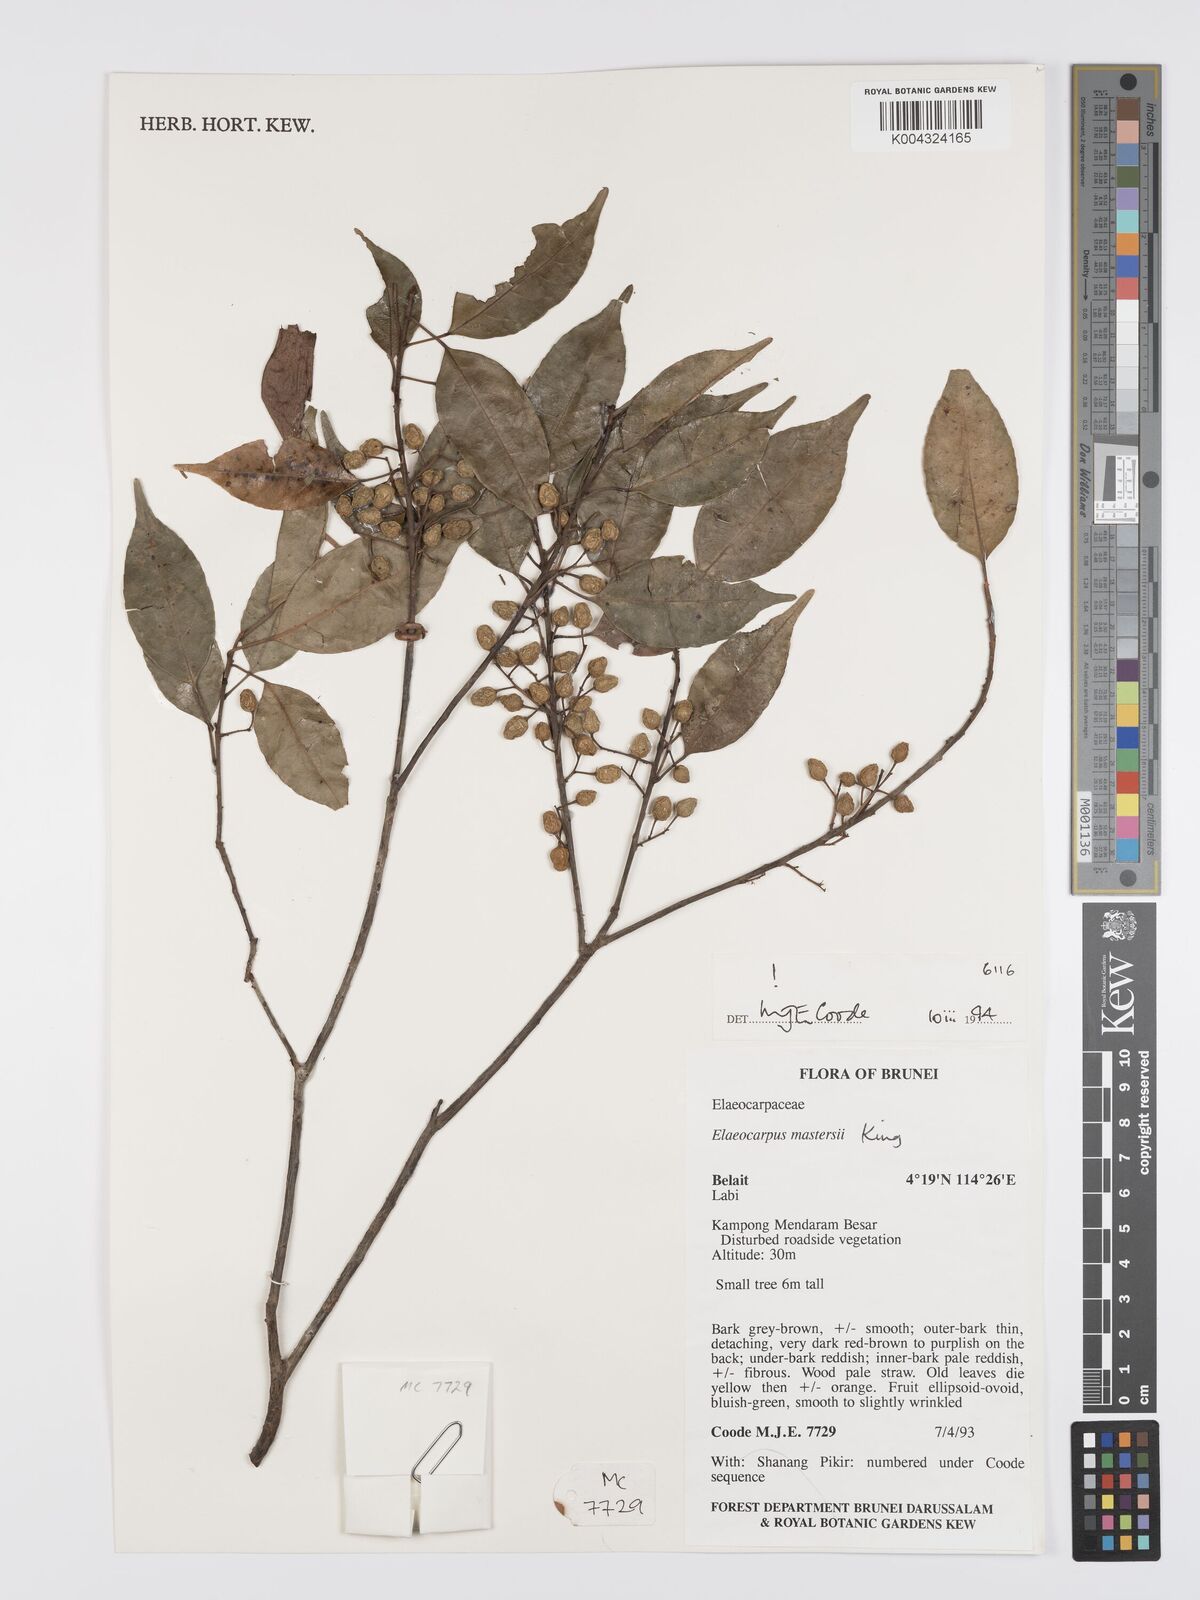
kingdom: Plantae
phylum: Tracheophyta
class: Magnoliopsida
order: Oxalidales
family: Elaeocarpaceae
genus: Elaeocarpus
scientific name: Elaeocarpus mastersii
